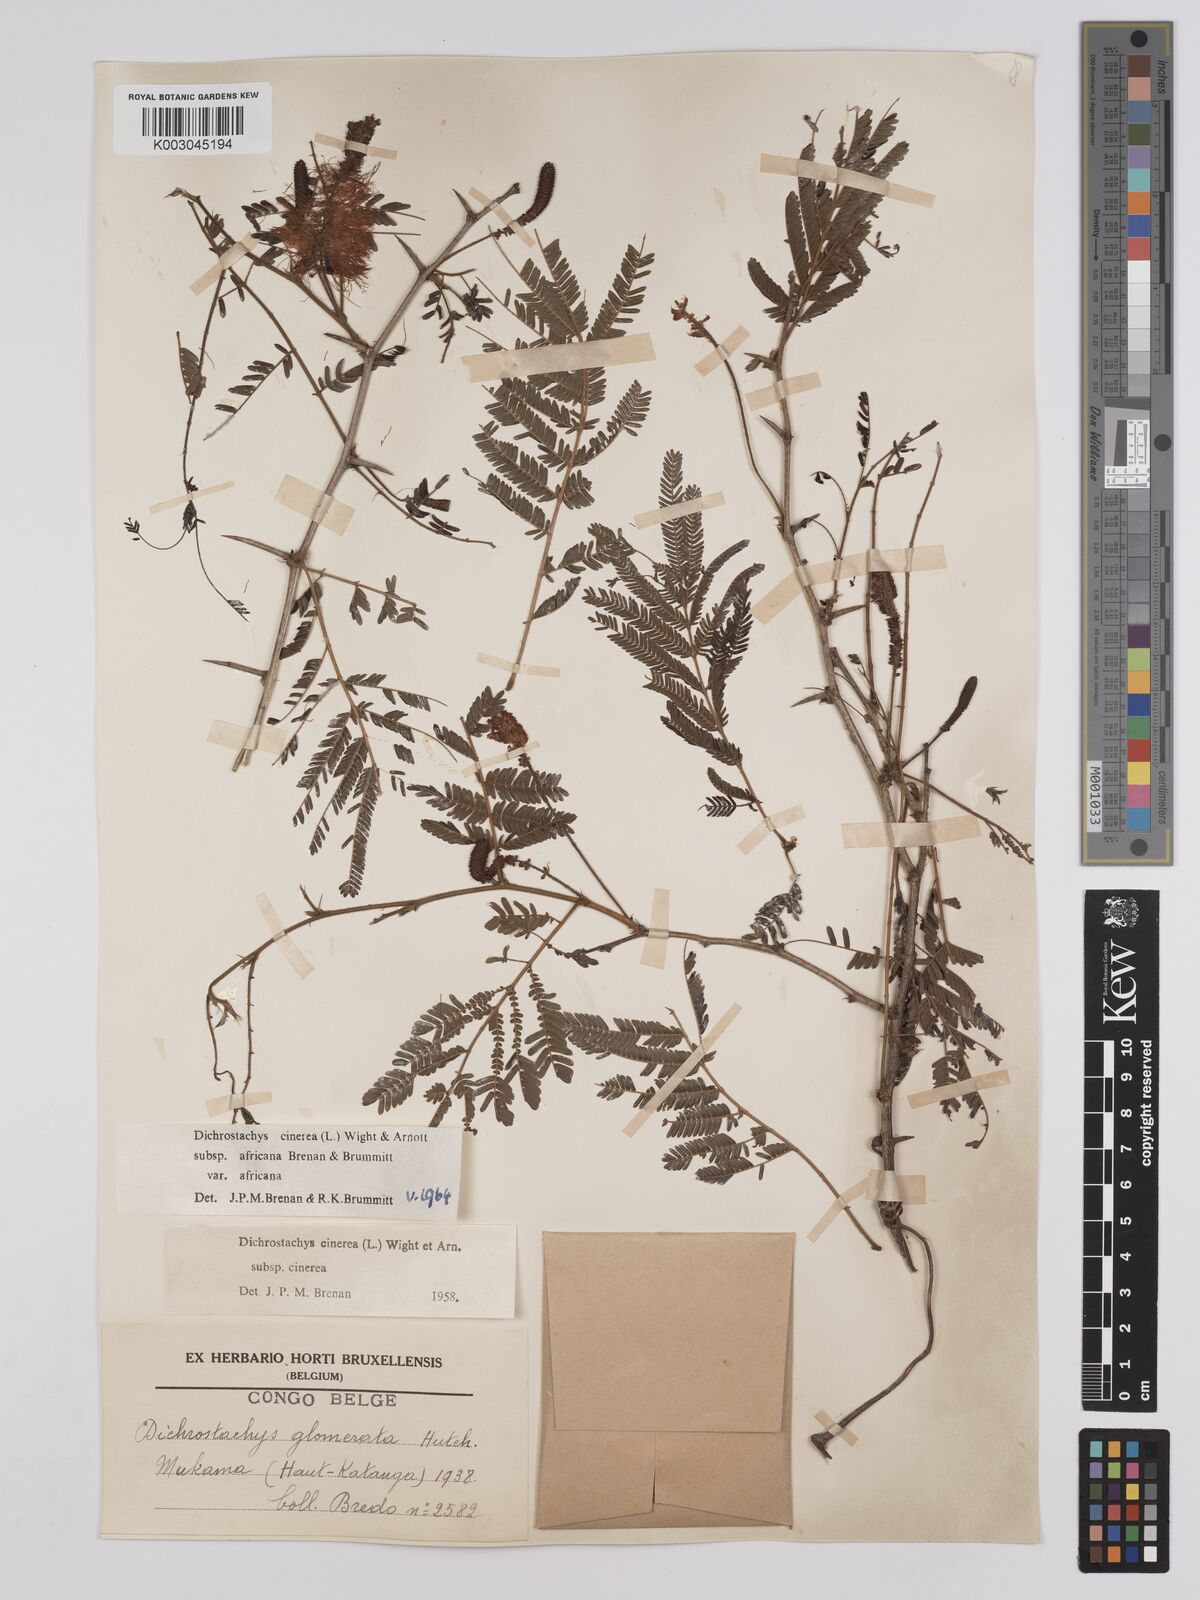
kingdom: Plantae
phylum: Tracheophyta
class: Magnoliopsida
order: Fabales
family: Fabaceae
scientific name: Fabaceae
